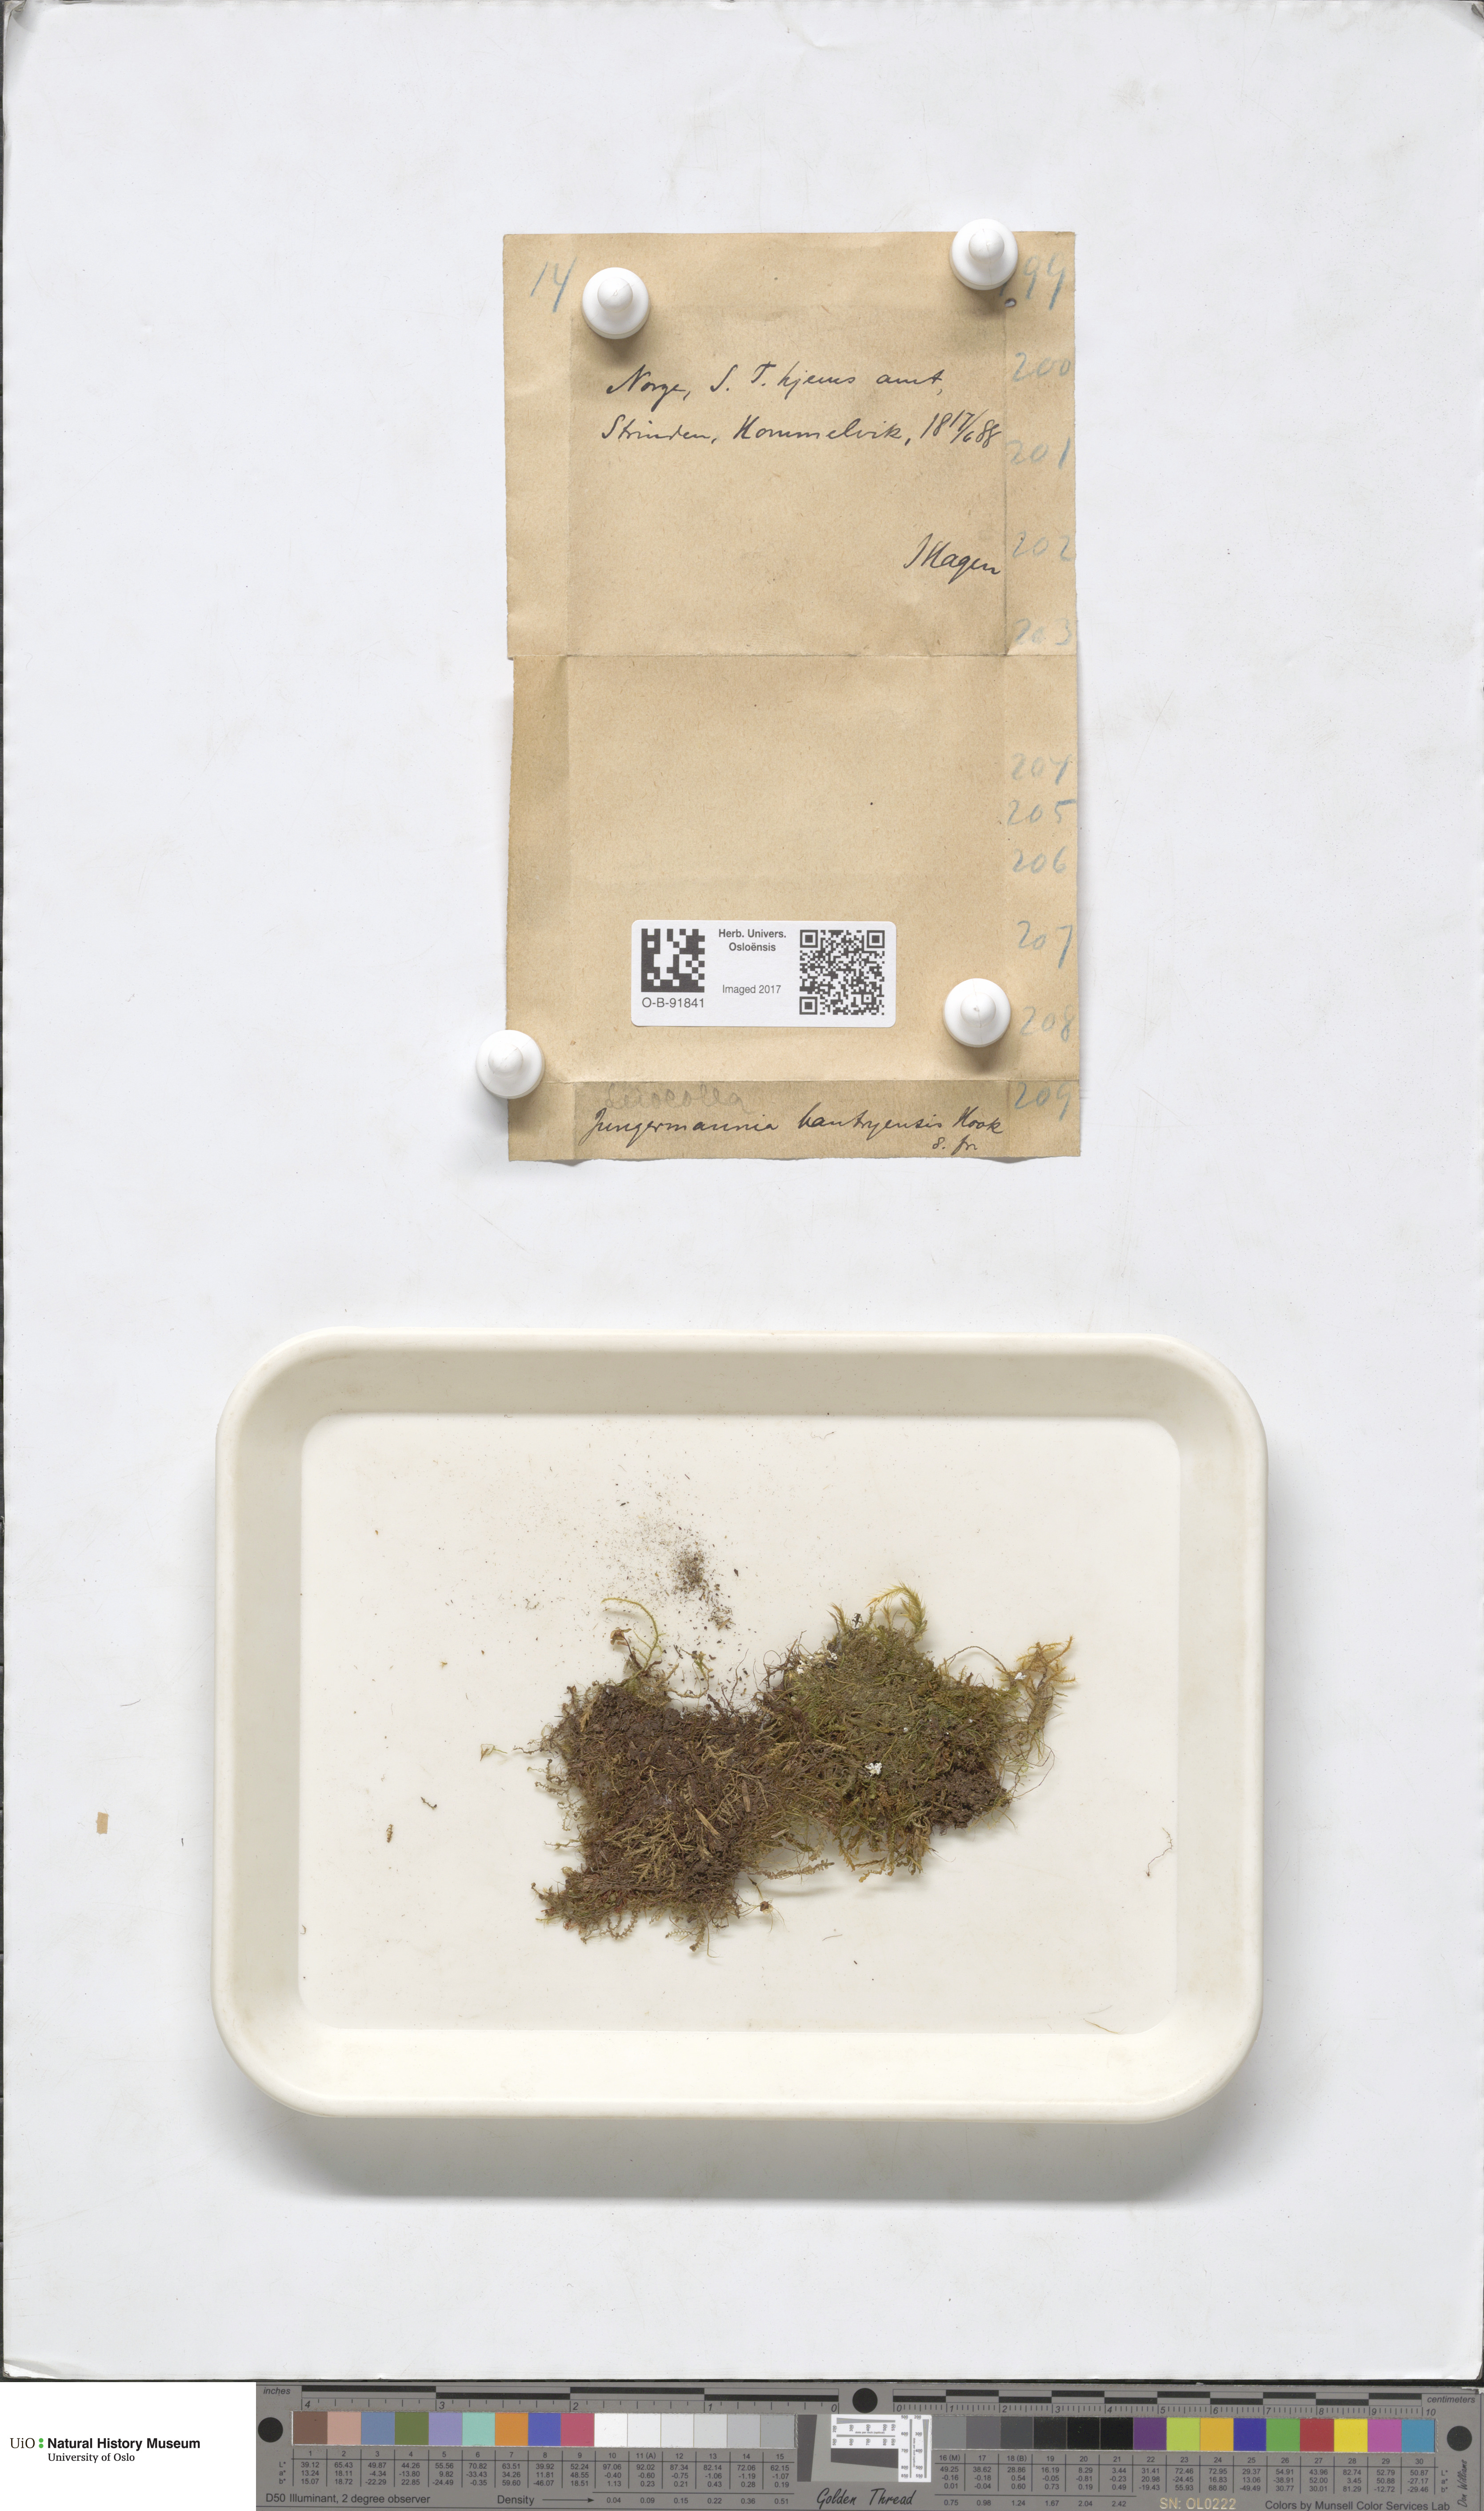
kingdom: Plantae
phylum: Marchantiophyta
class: Jungermanniopsida
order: Jungermanniales
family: Jungermanniaceae
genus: Mesoptychia
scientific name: Mesoptychia bantriensis
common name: Bantry notchwort
